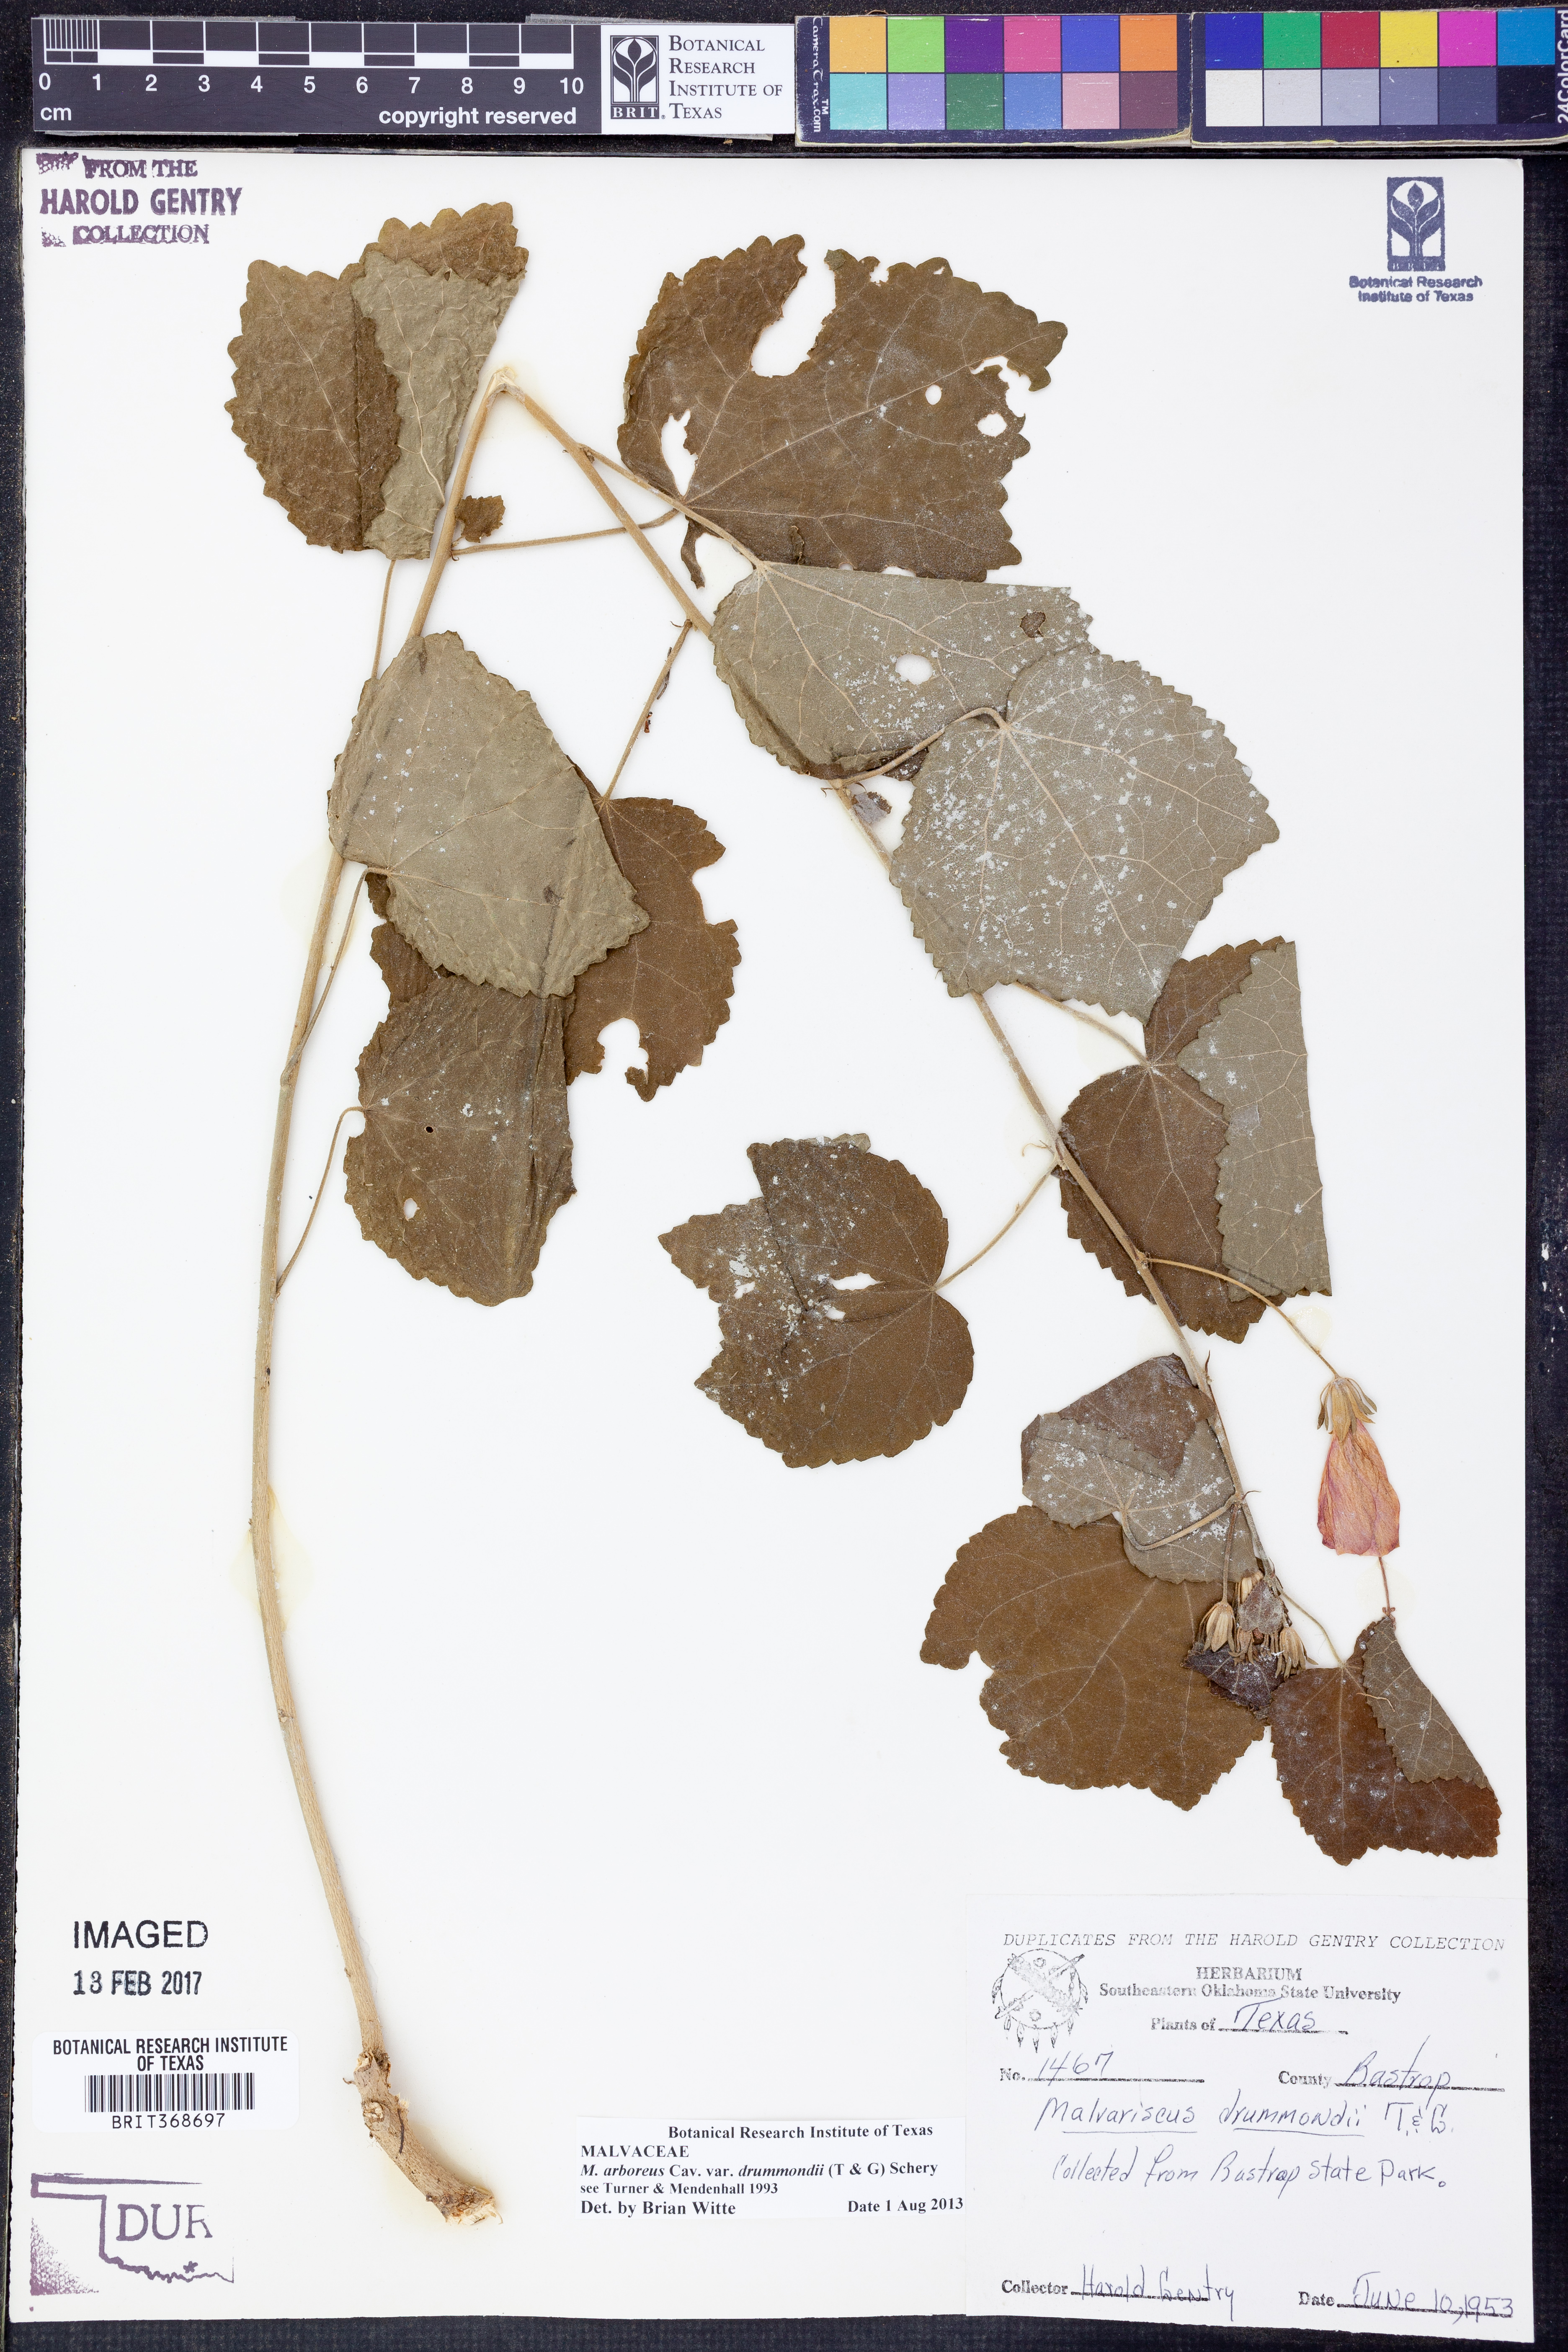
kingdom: Plantae
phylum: Tracheophyta
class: Magnoliopsida
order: Malvales
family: Malvaceae
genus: Malvaviscus
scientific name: Malvaviscus arboreus
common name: Wax mallow
